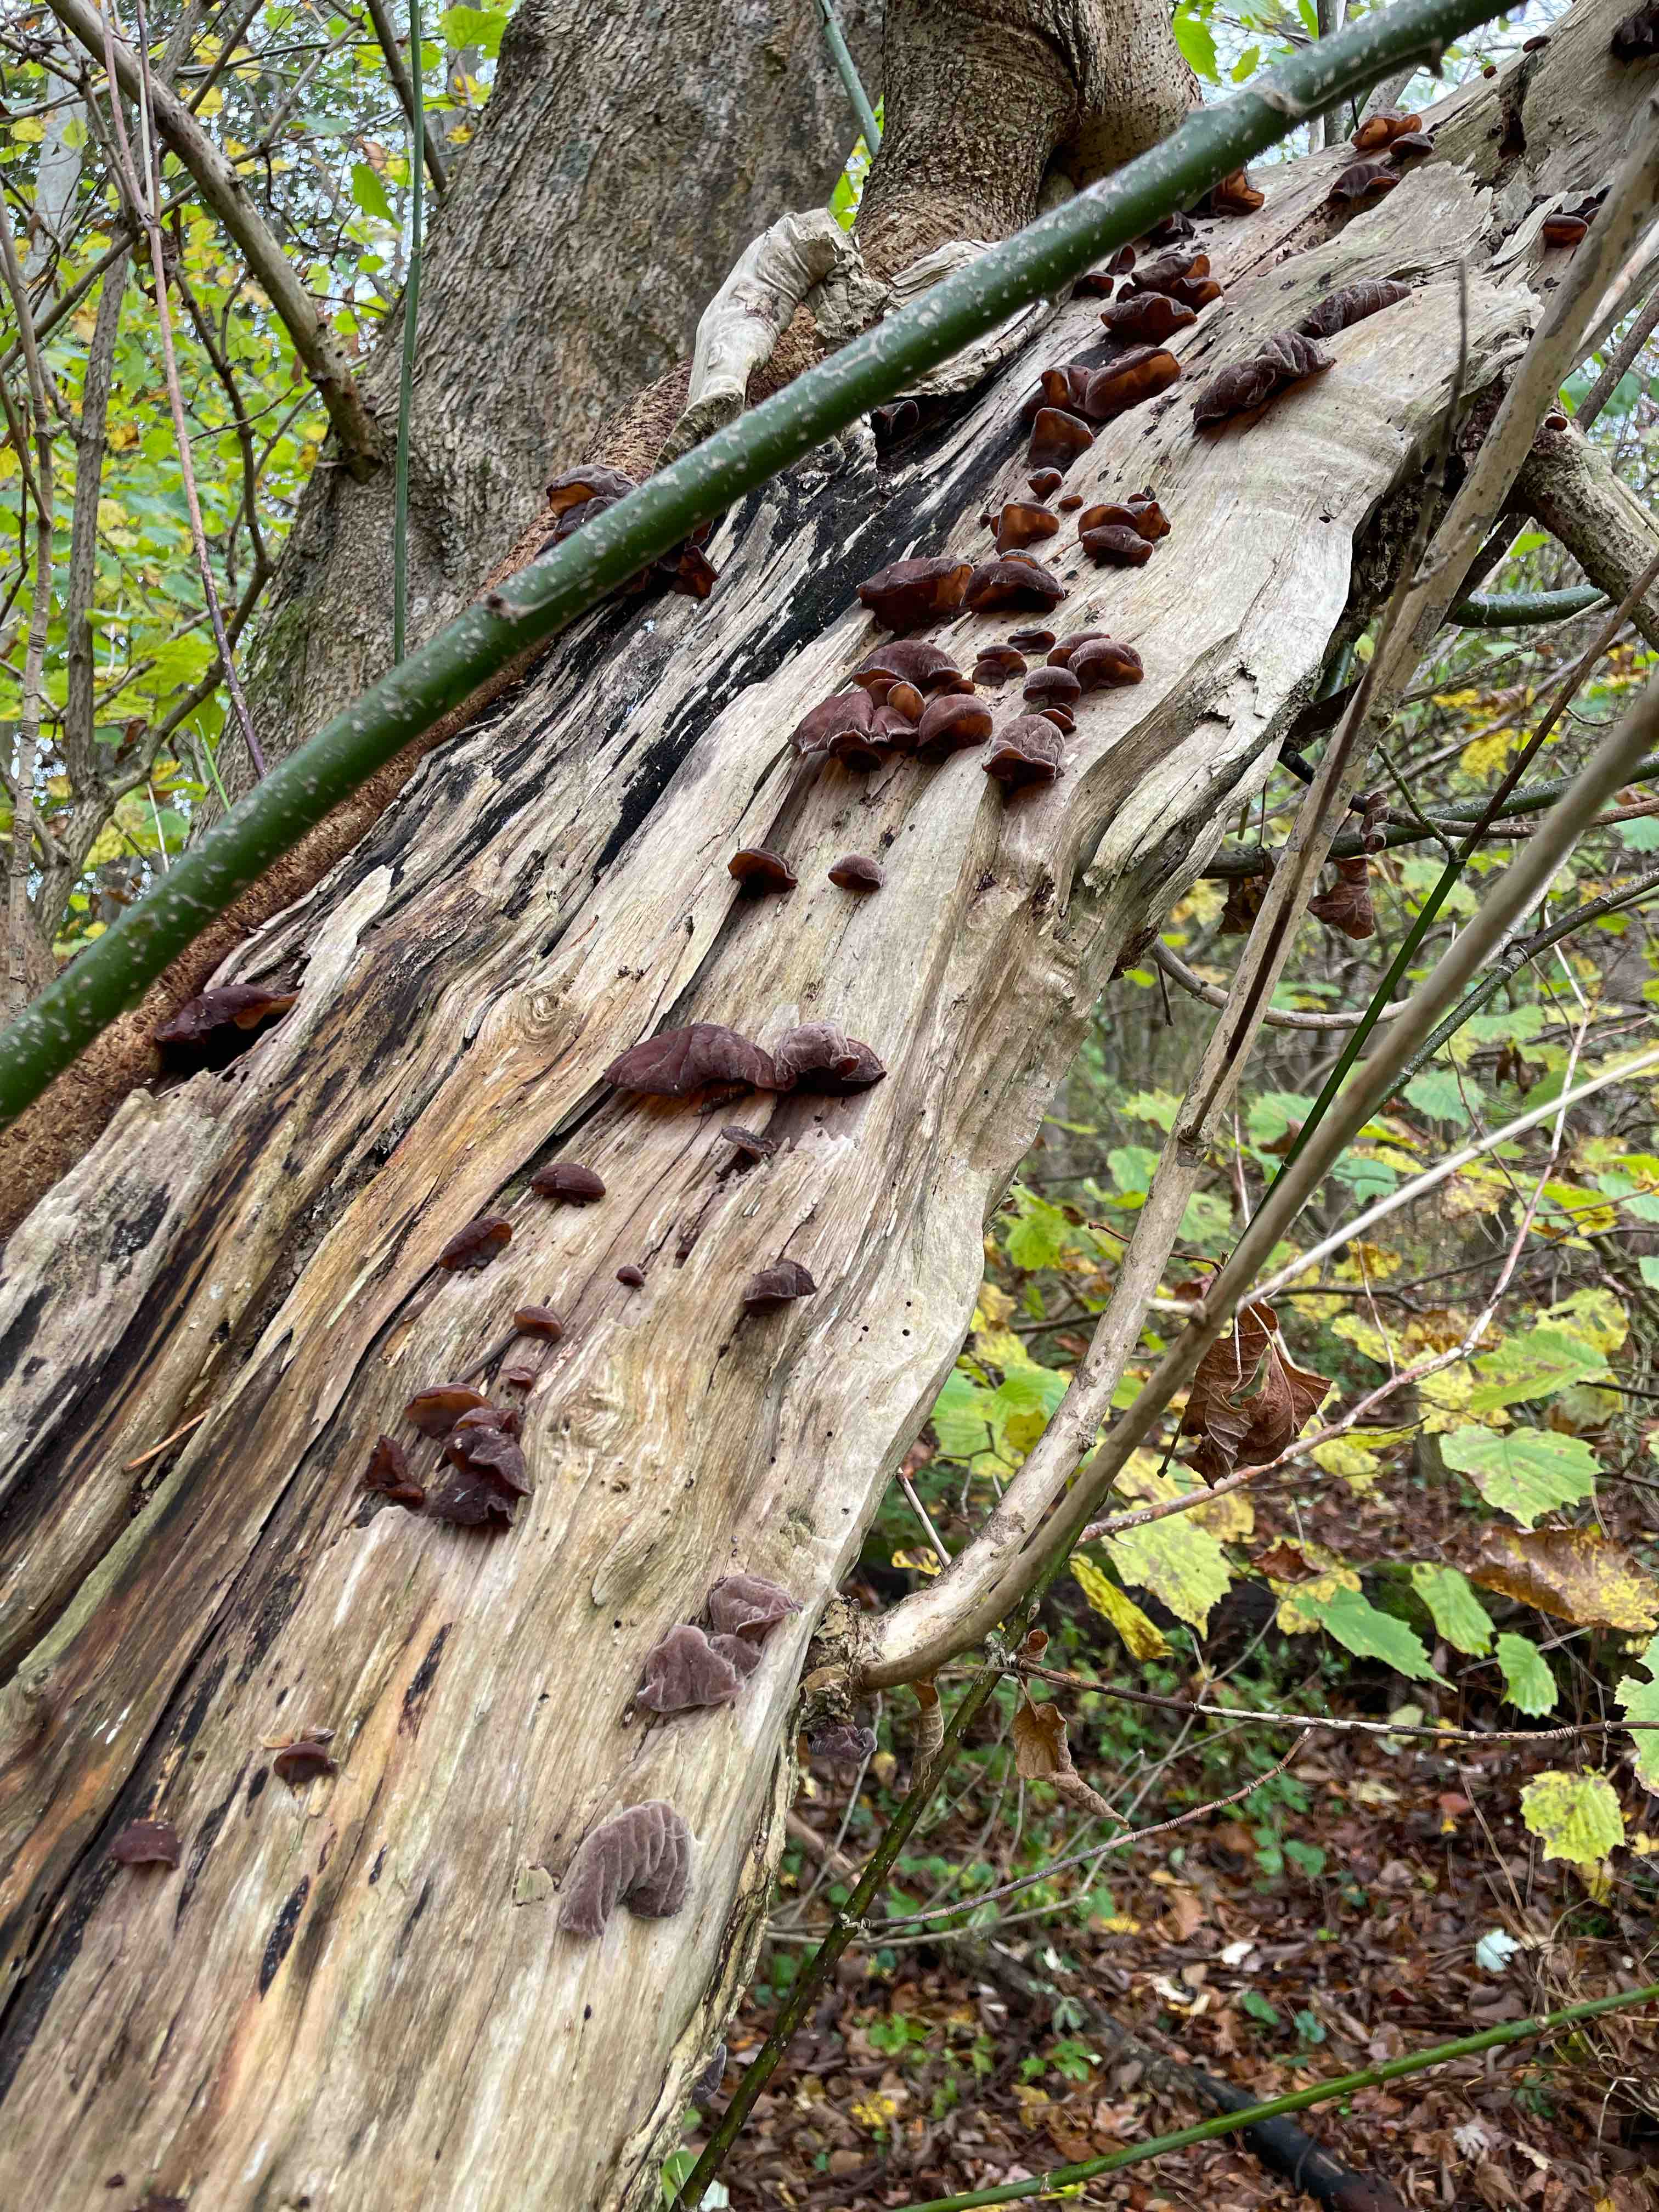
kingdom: Fungi
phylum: Basidiomycota
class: Agaricomycetes
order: Auriculariales
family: Auriculariaceae
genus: Auricularia
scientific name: Auricularia auricula-judae
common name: almindelig judasøre
